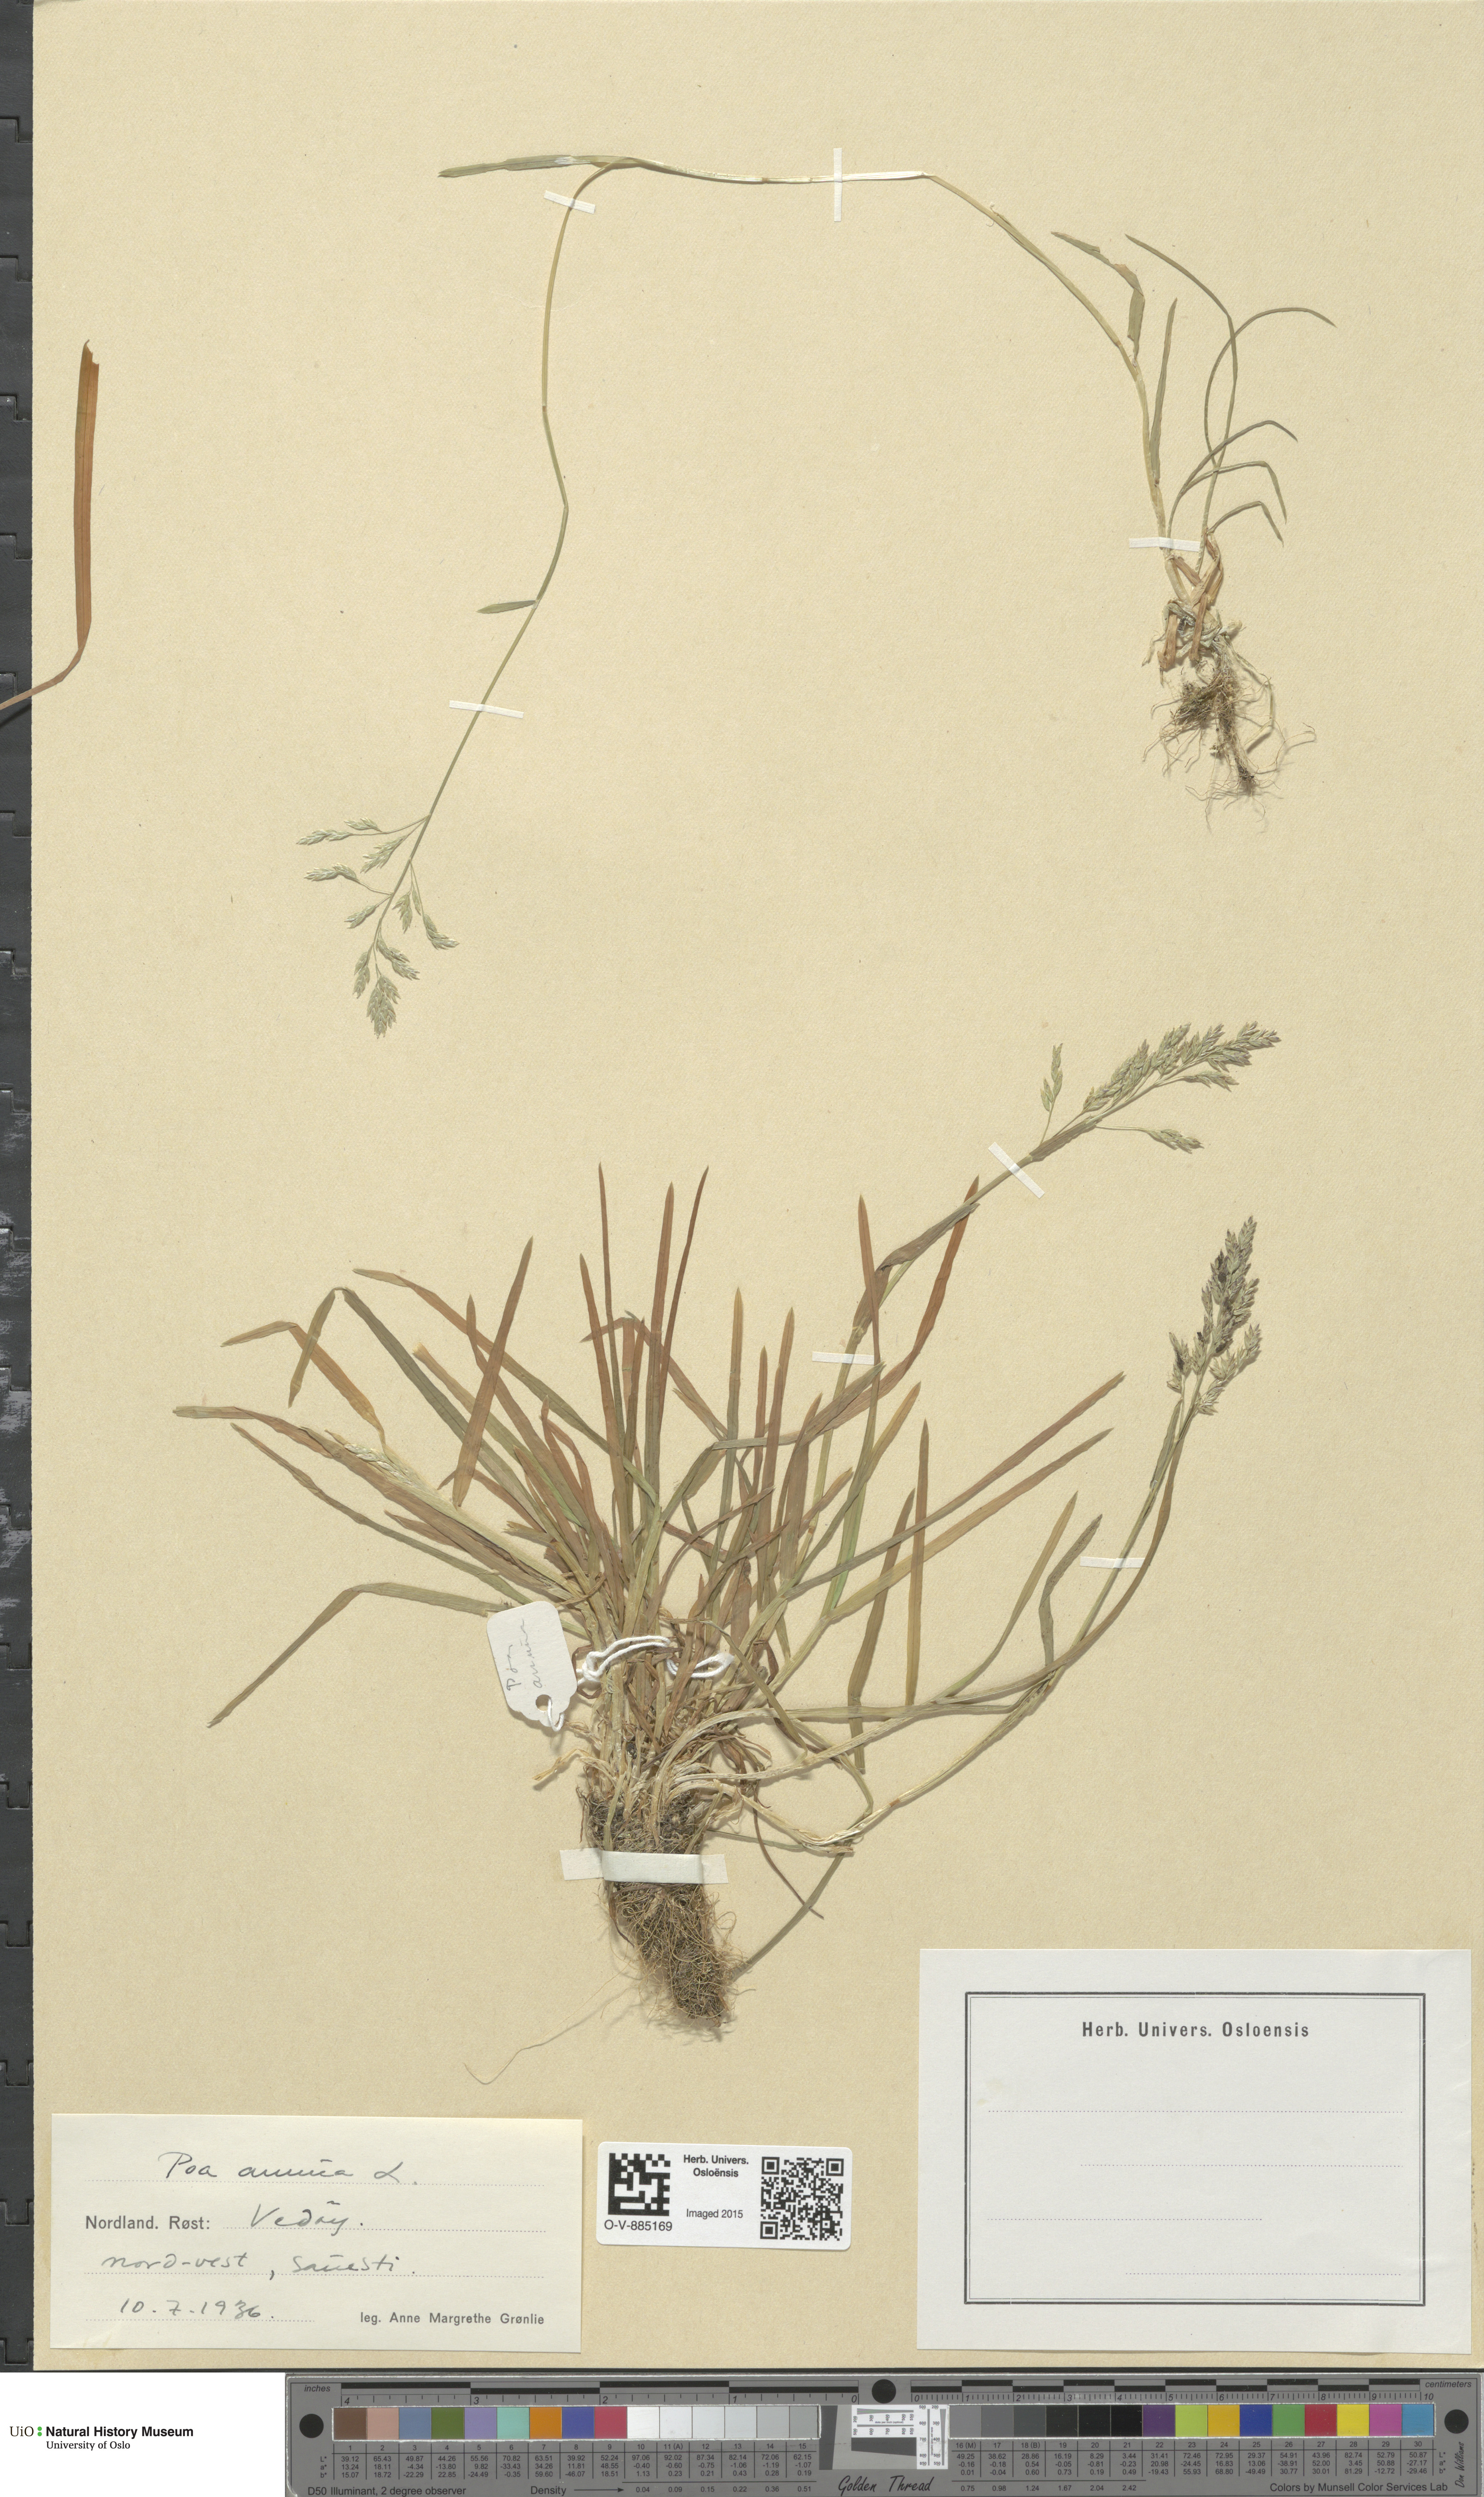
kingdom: Plantae
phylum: Tracheophyta
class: Liliopsida
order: Poales
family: Poaceae
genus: Poa
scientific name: Poa annua
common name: Annual bluegrass
